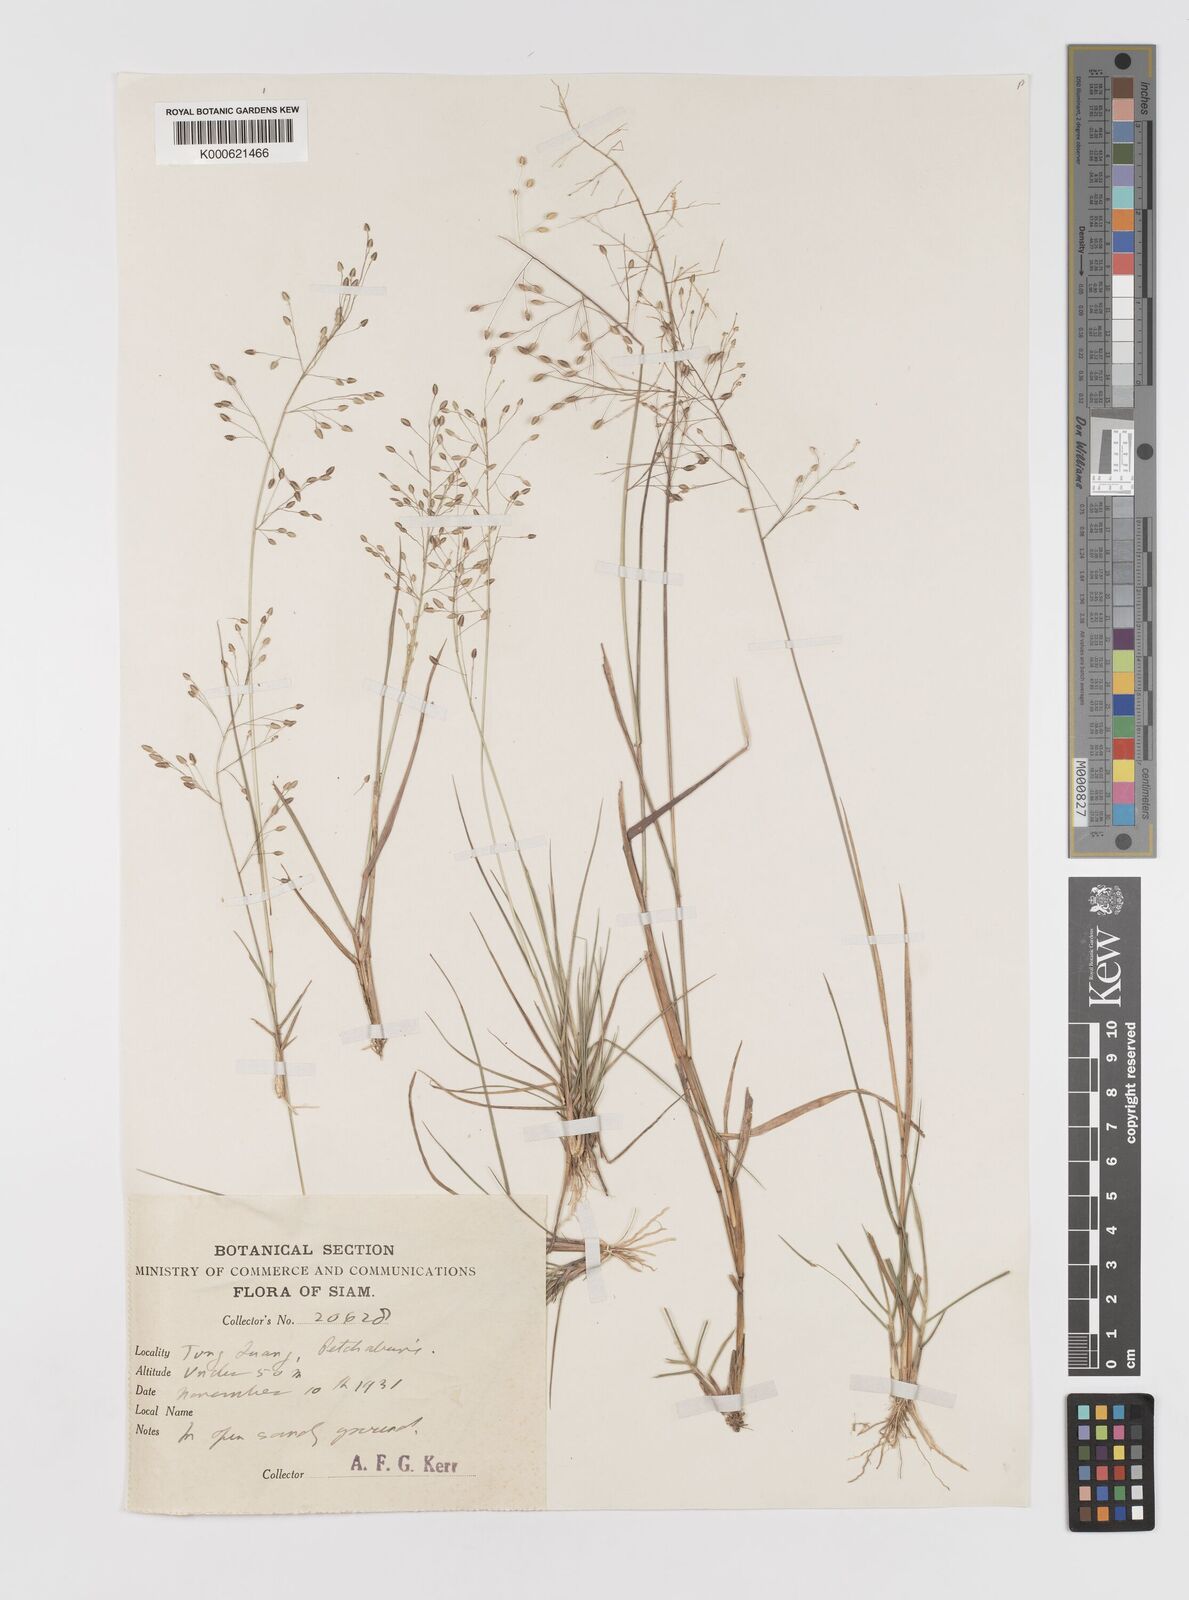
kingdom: Plantae
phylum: Tracheophyta
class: Liliopsida
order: Poales
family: Poaceae
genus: Eragrostis
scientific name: Eragrostis montana
